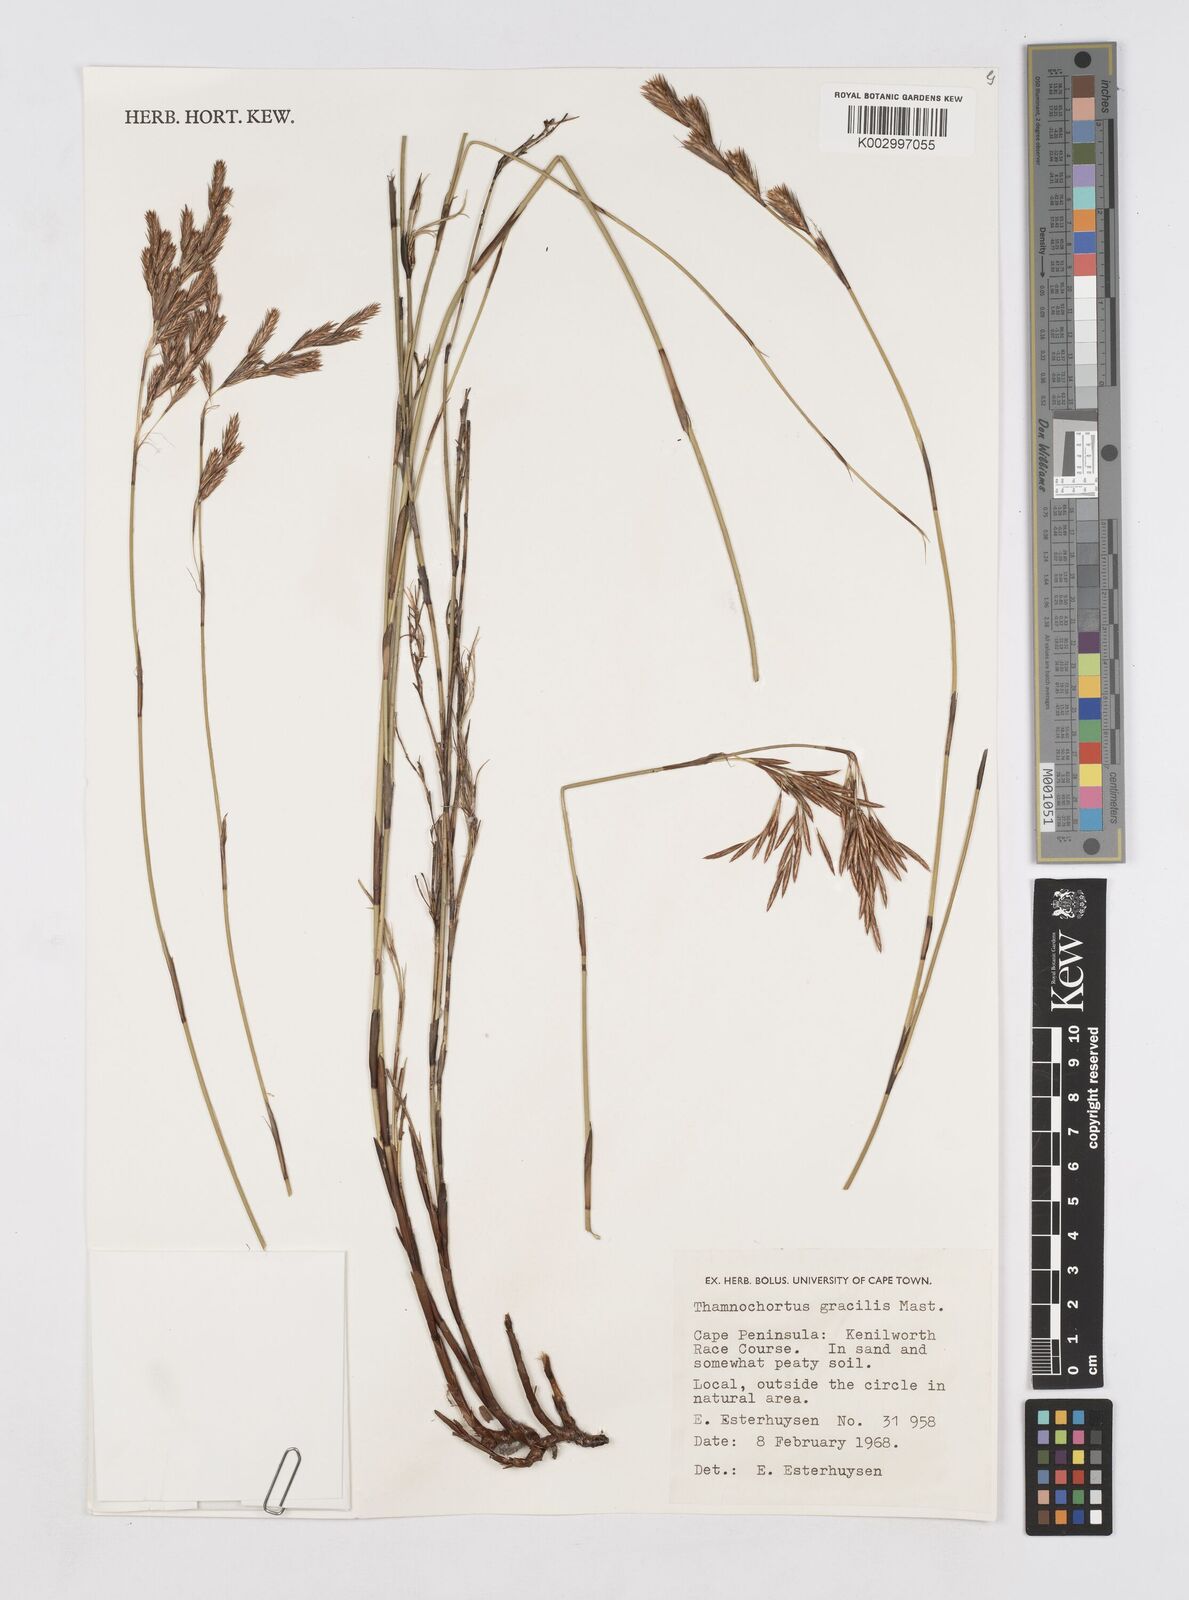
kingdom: Plantae
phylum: Tracheophyta
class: Liliopsida
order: Poales
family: Restionaceae
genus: Thamnochortus
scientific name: Thamnochortus gracilis
